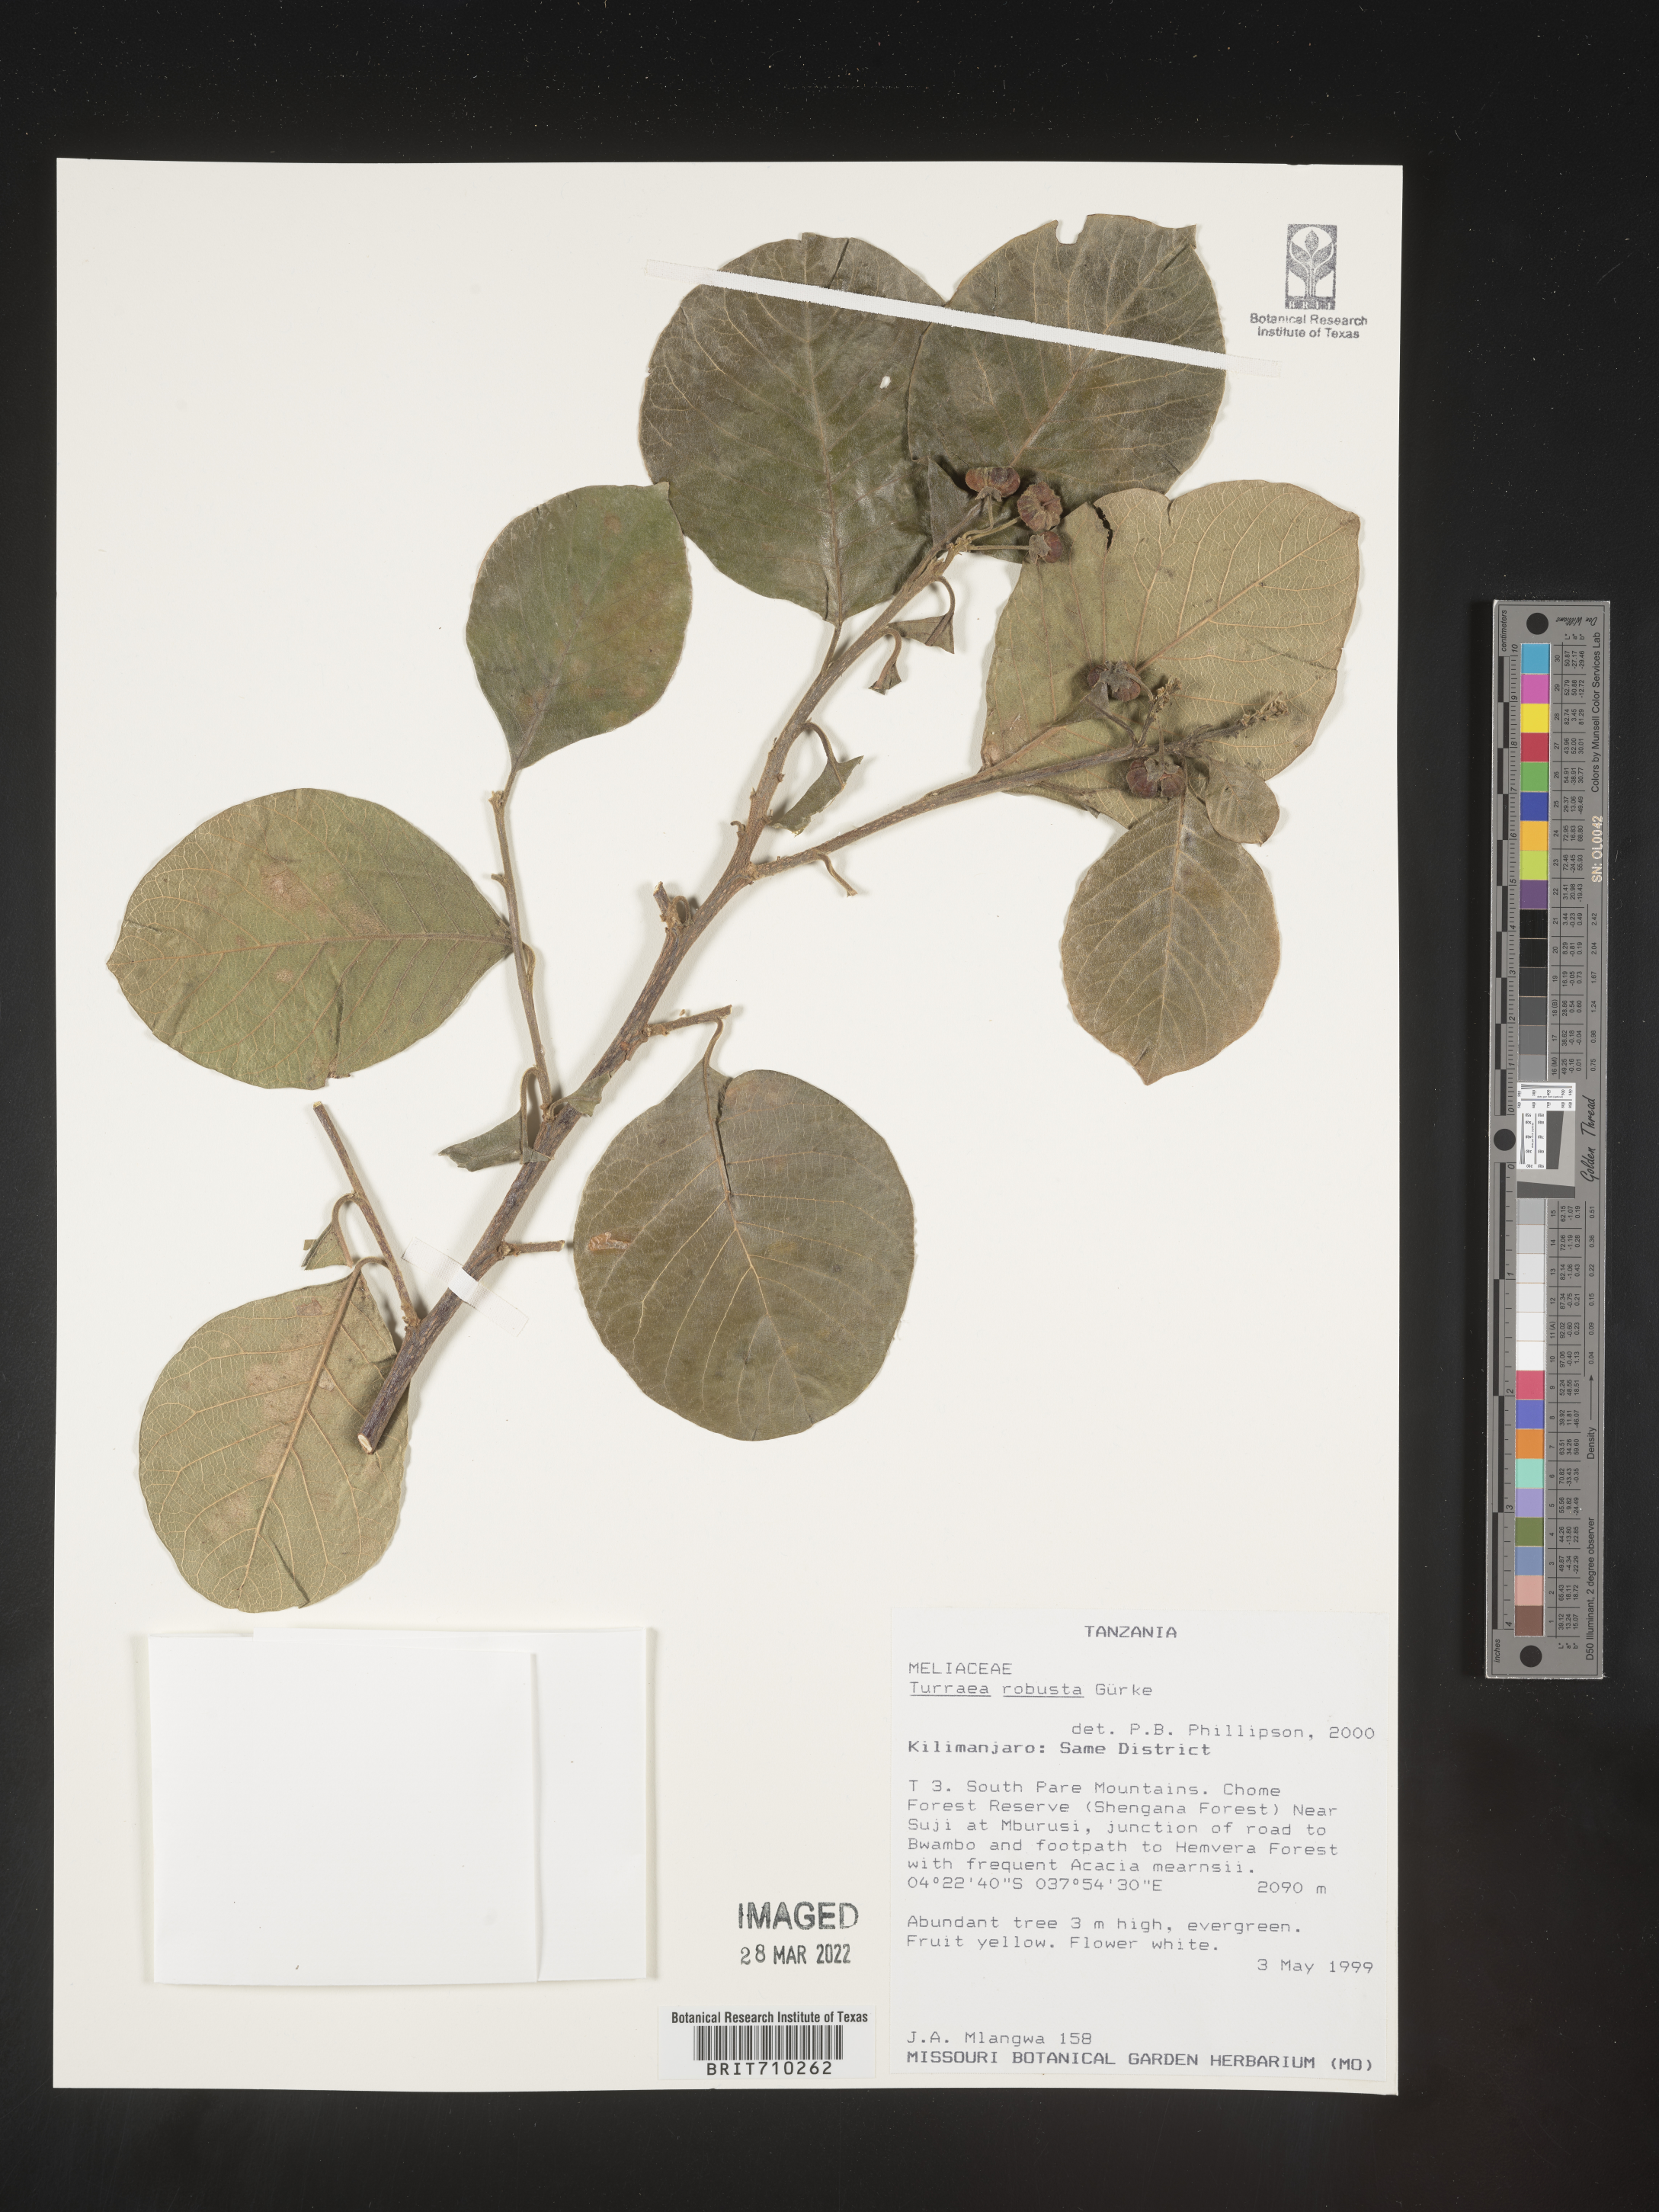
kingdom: Plantae
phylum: Tracheophyta
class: Magnoliopsida
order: Sapindales
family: Meliaceae
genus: Turraea
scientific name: Turraea
